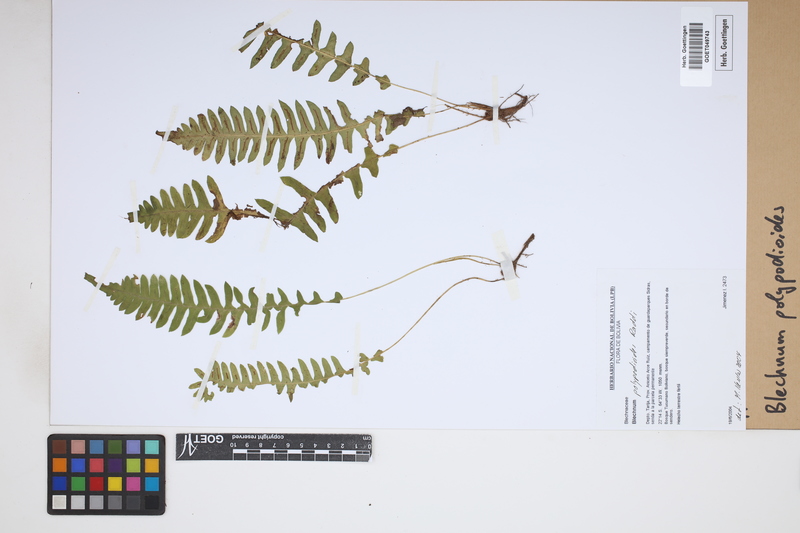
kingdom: Plantae
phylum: Tracheophyta
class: Polypodiopsida
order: Polypodiales
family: Blechnaceae
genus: Blechnum
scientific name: Blechnum polypodioides
